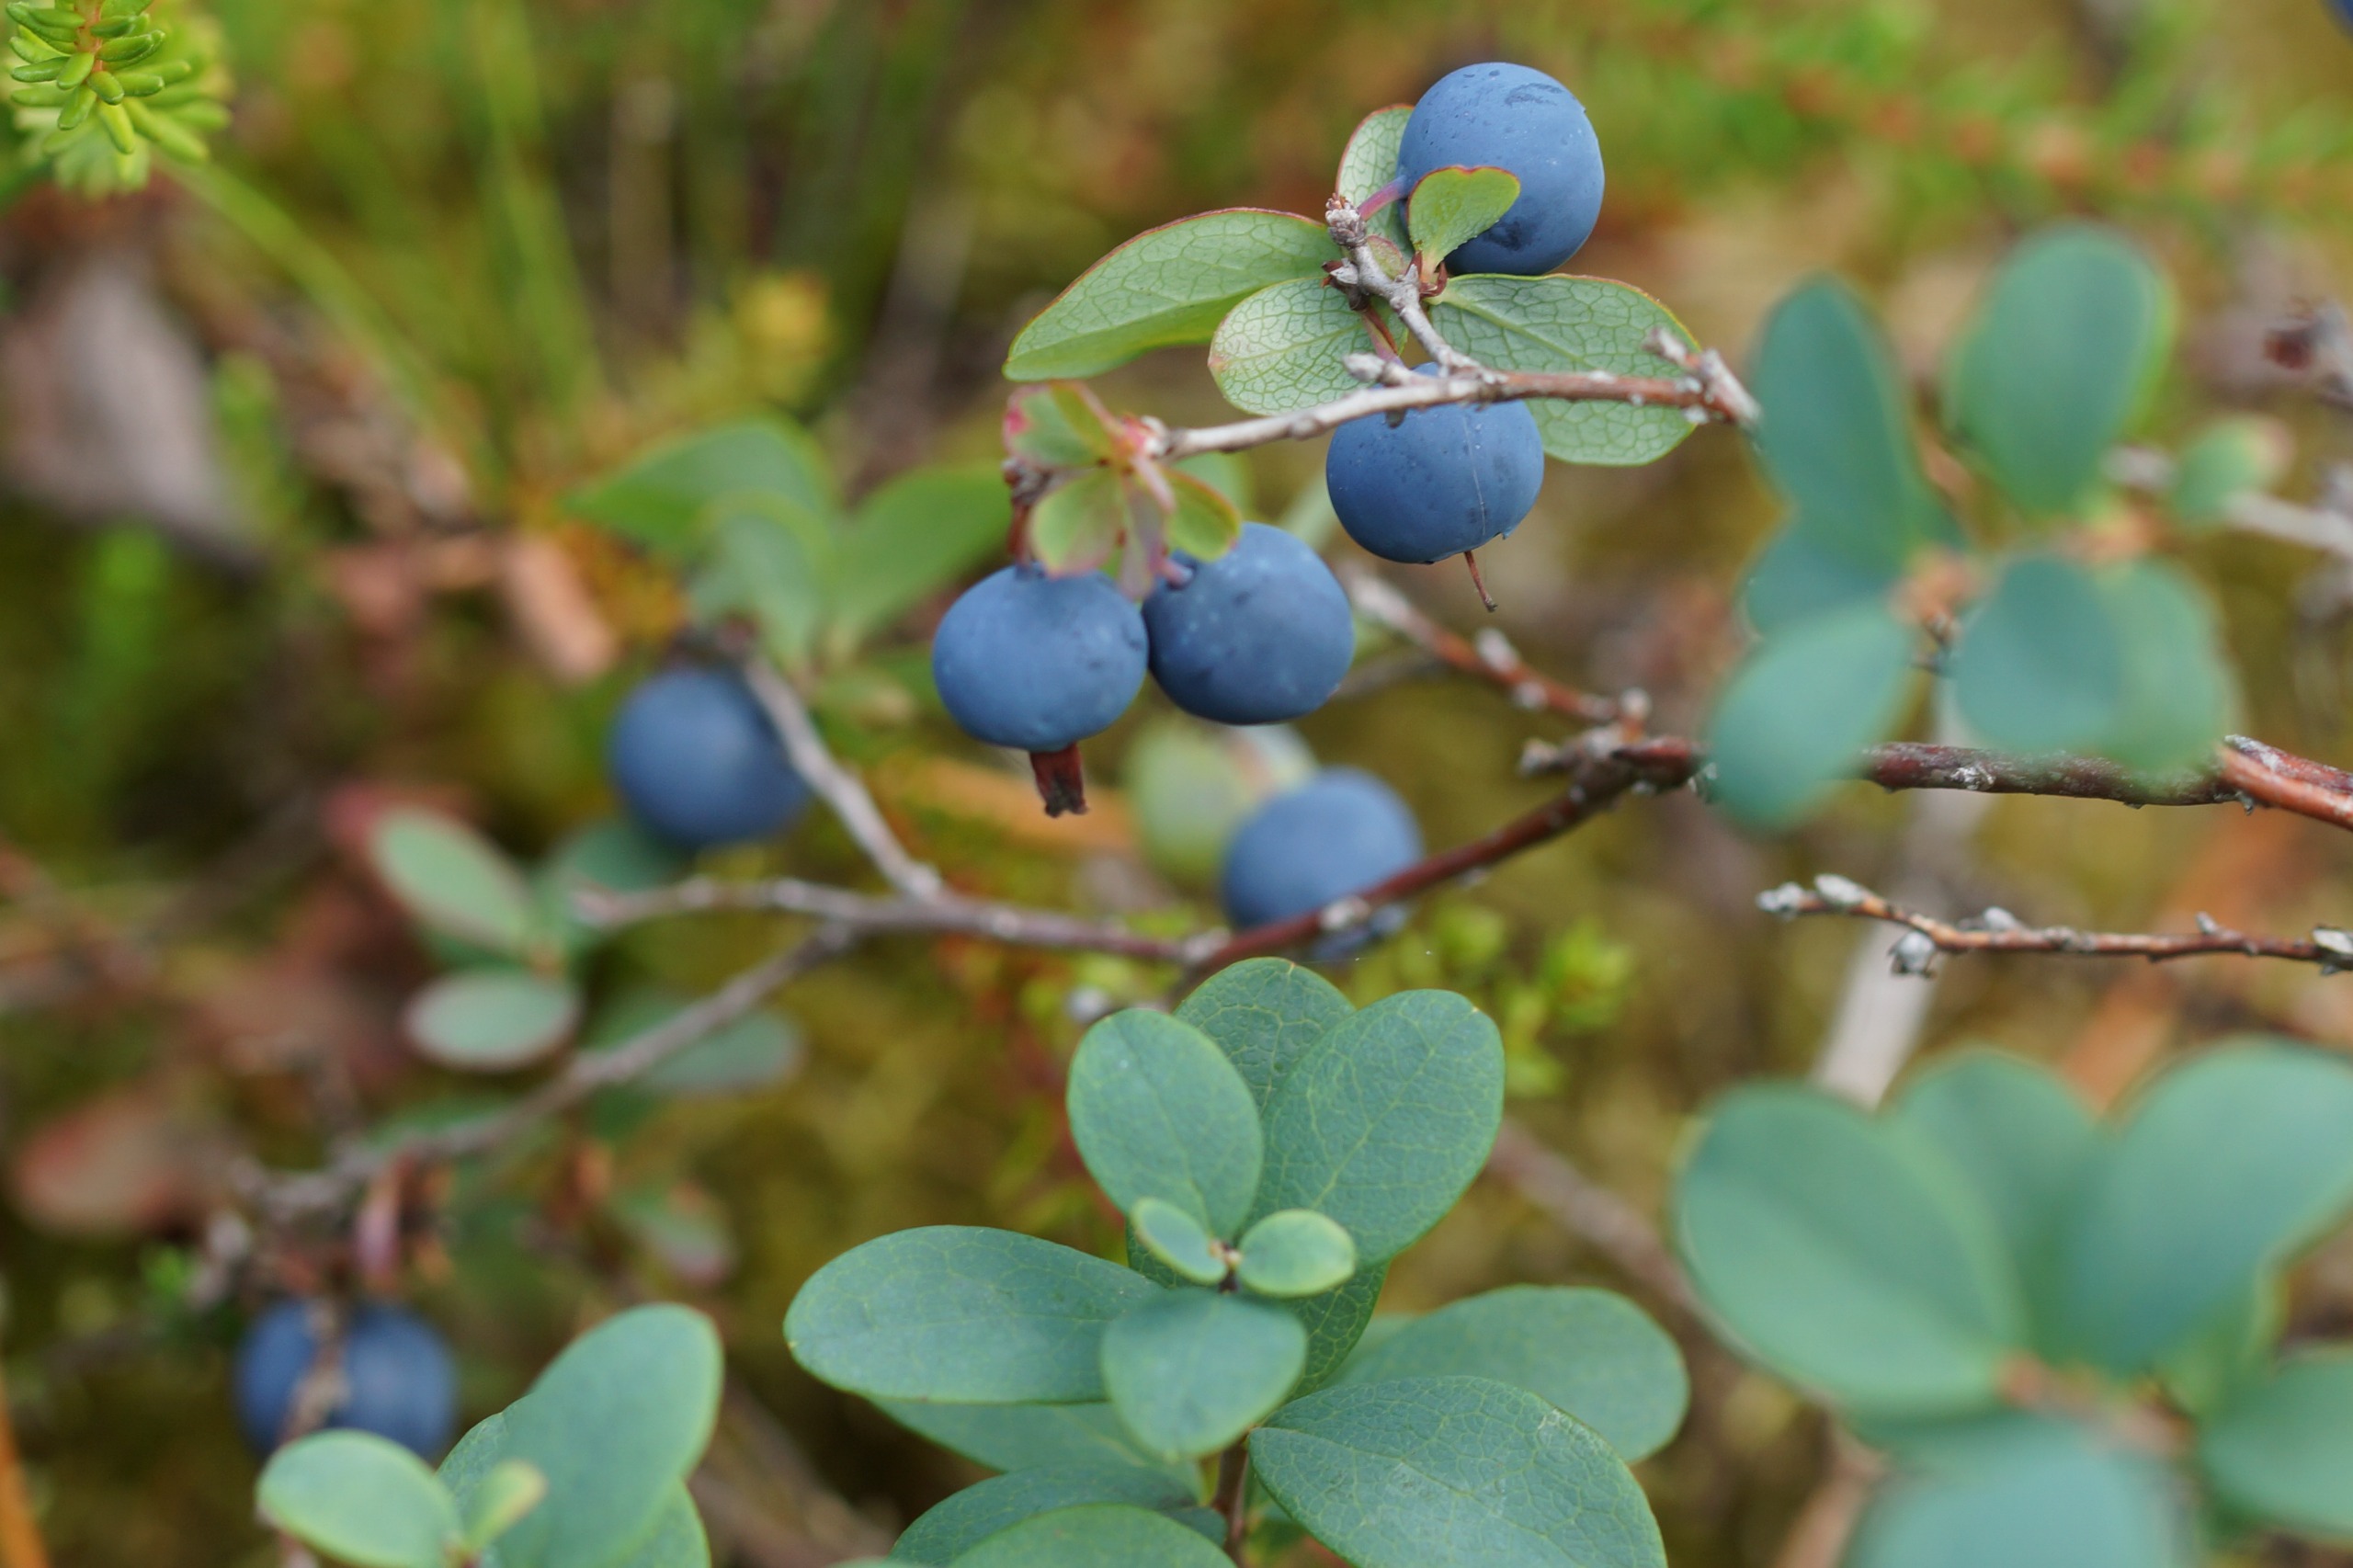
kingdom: Plantae
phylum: Tracheophyta
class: Magnoliopsida
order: Ericales
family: Ericaceae
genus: Vaccinium
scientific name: Vaccinium uliginosum
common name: Mose-bølle
